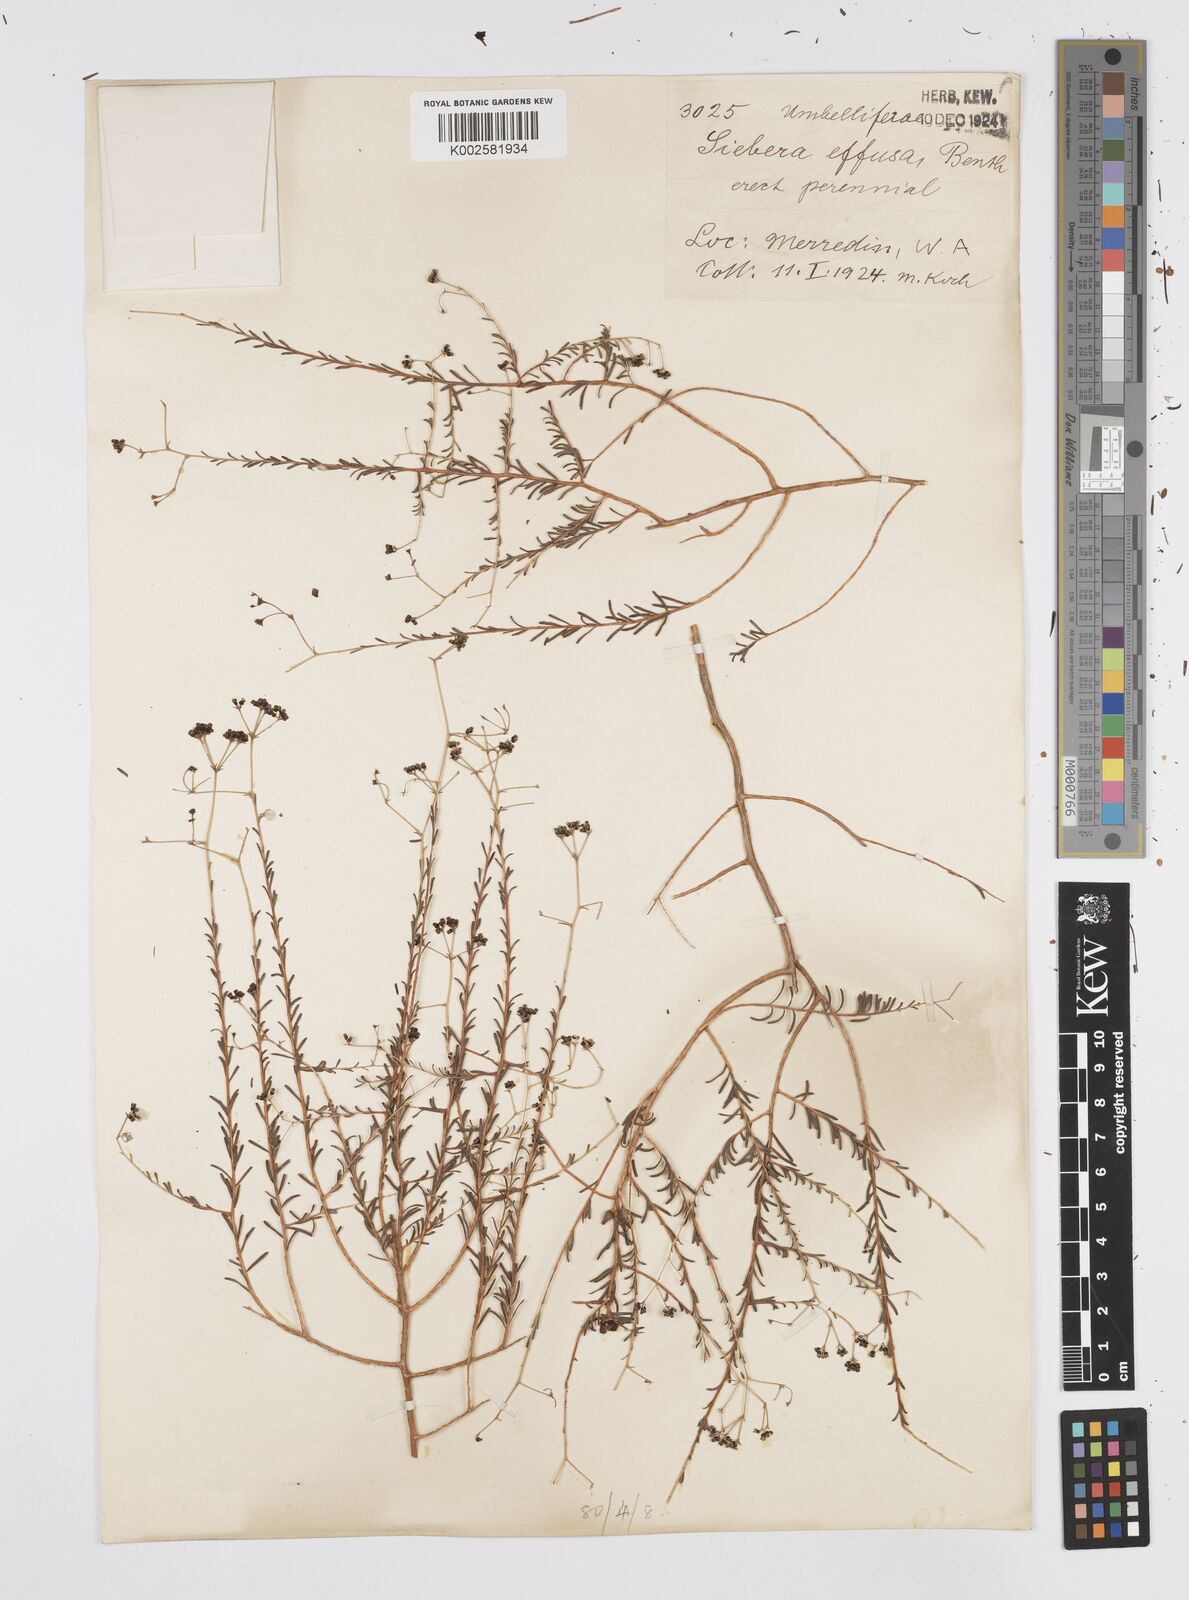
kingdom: Plantae
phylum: Tracheophyta
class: Magnoliopsida
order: Apiales
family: Apiaceae
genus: Platysace
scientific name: Platysace effusa
